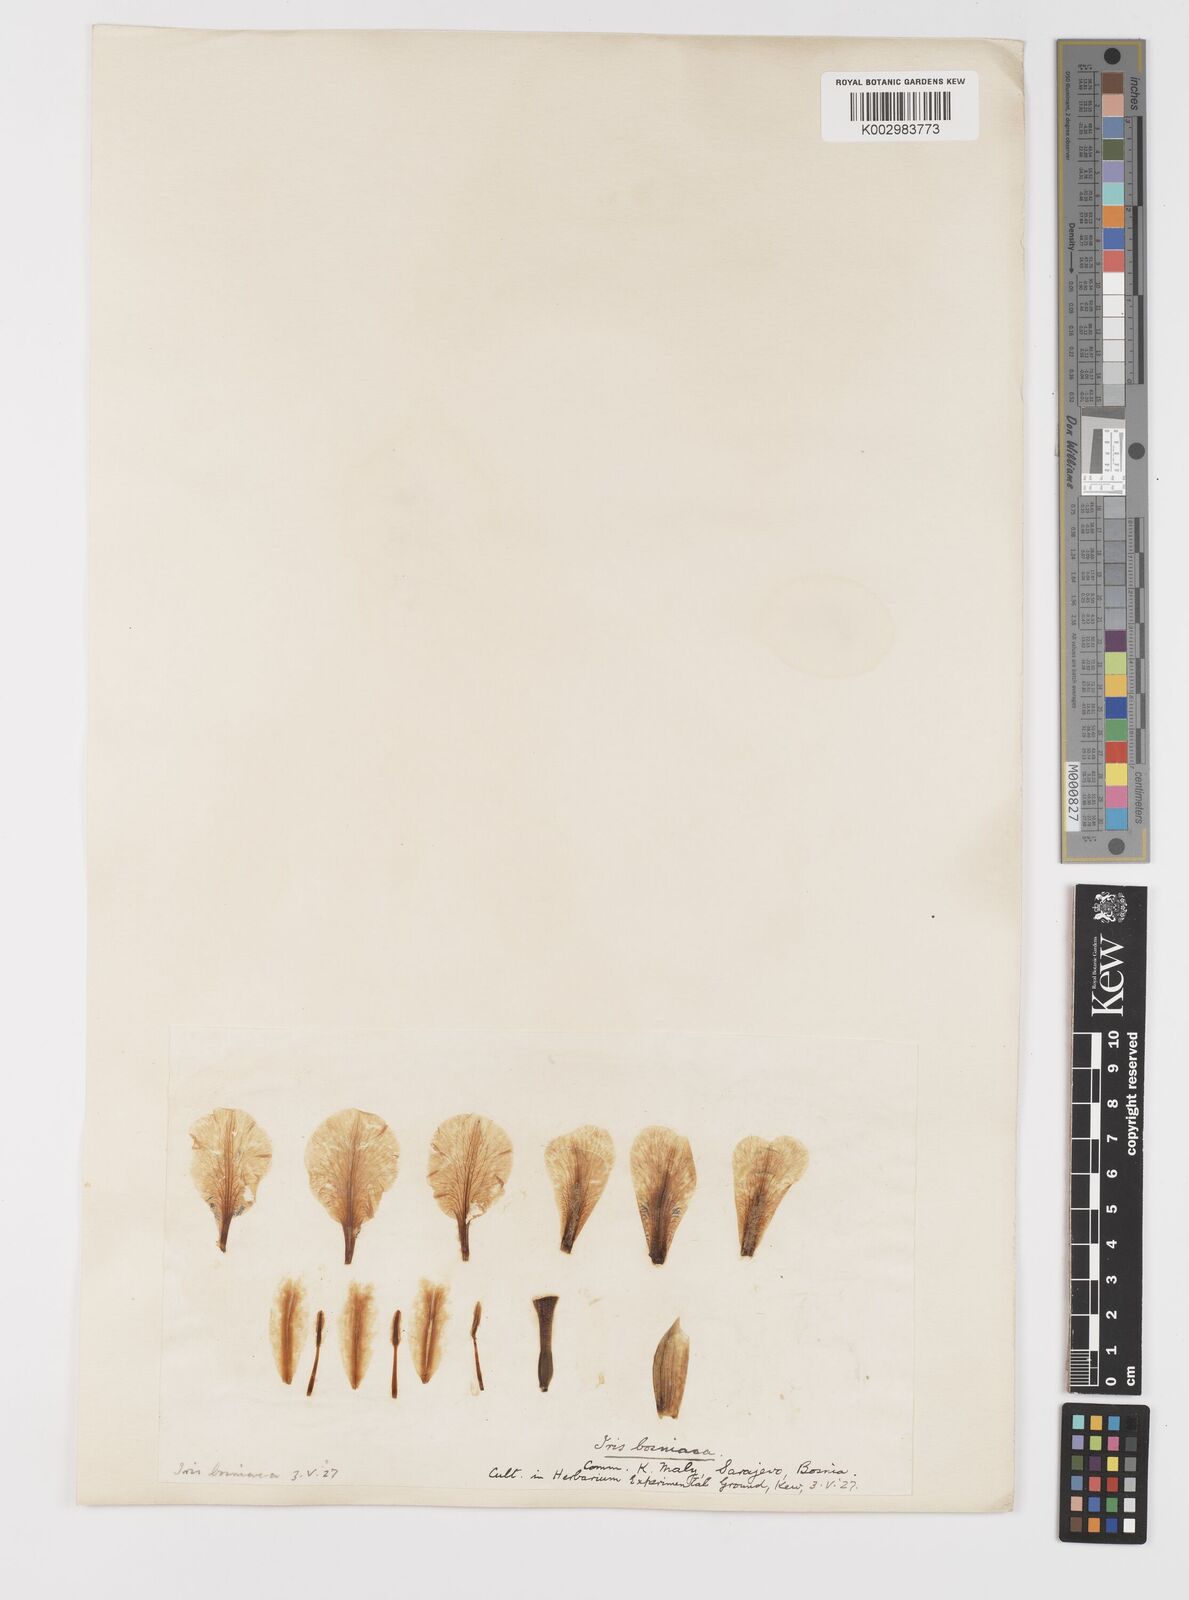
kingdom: Plantae
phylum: Tracheophyta
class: Liliopsida
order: Asparagales
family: Iridaceae
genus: Iris
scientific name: Iris reichenbachii
